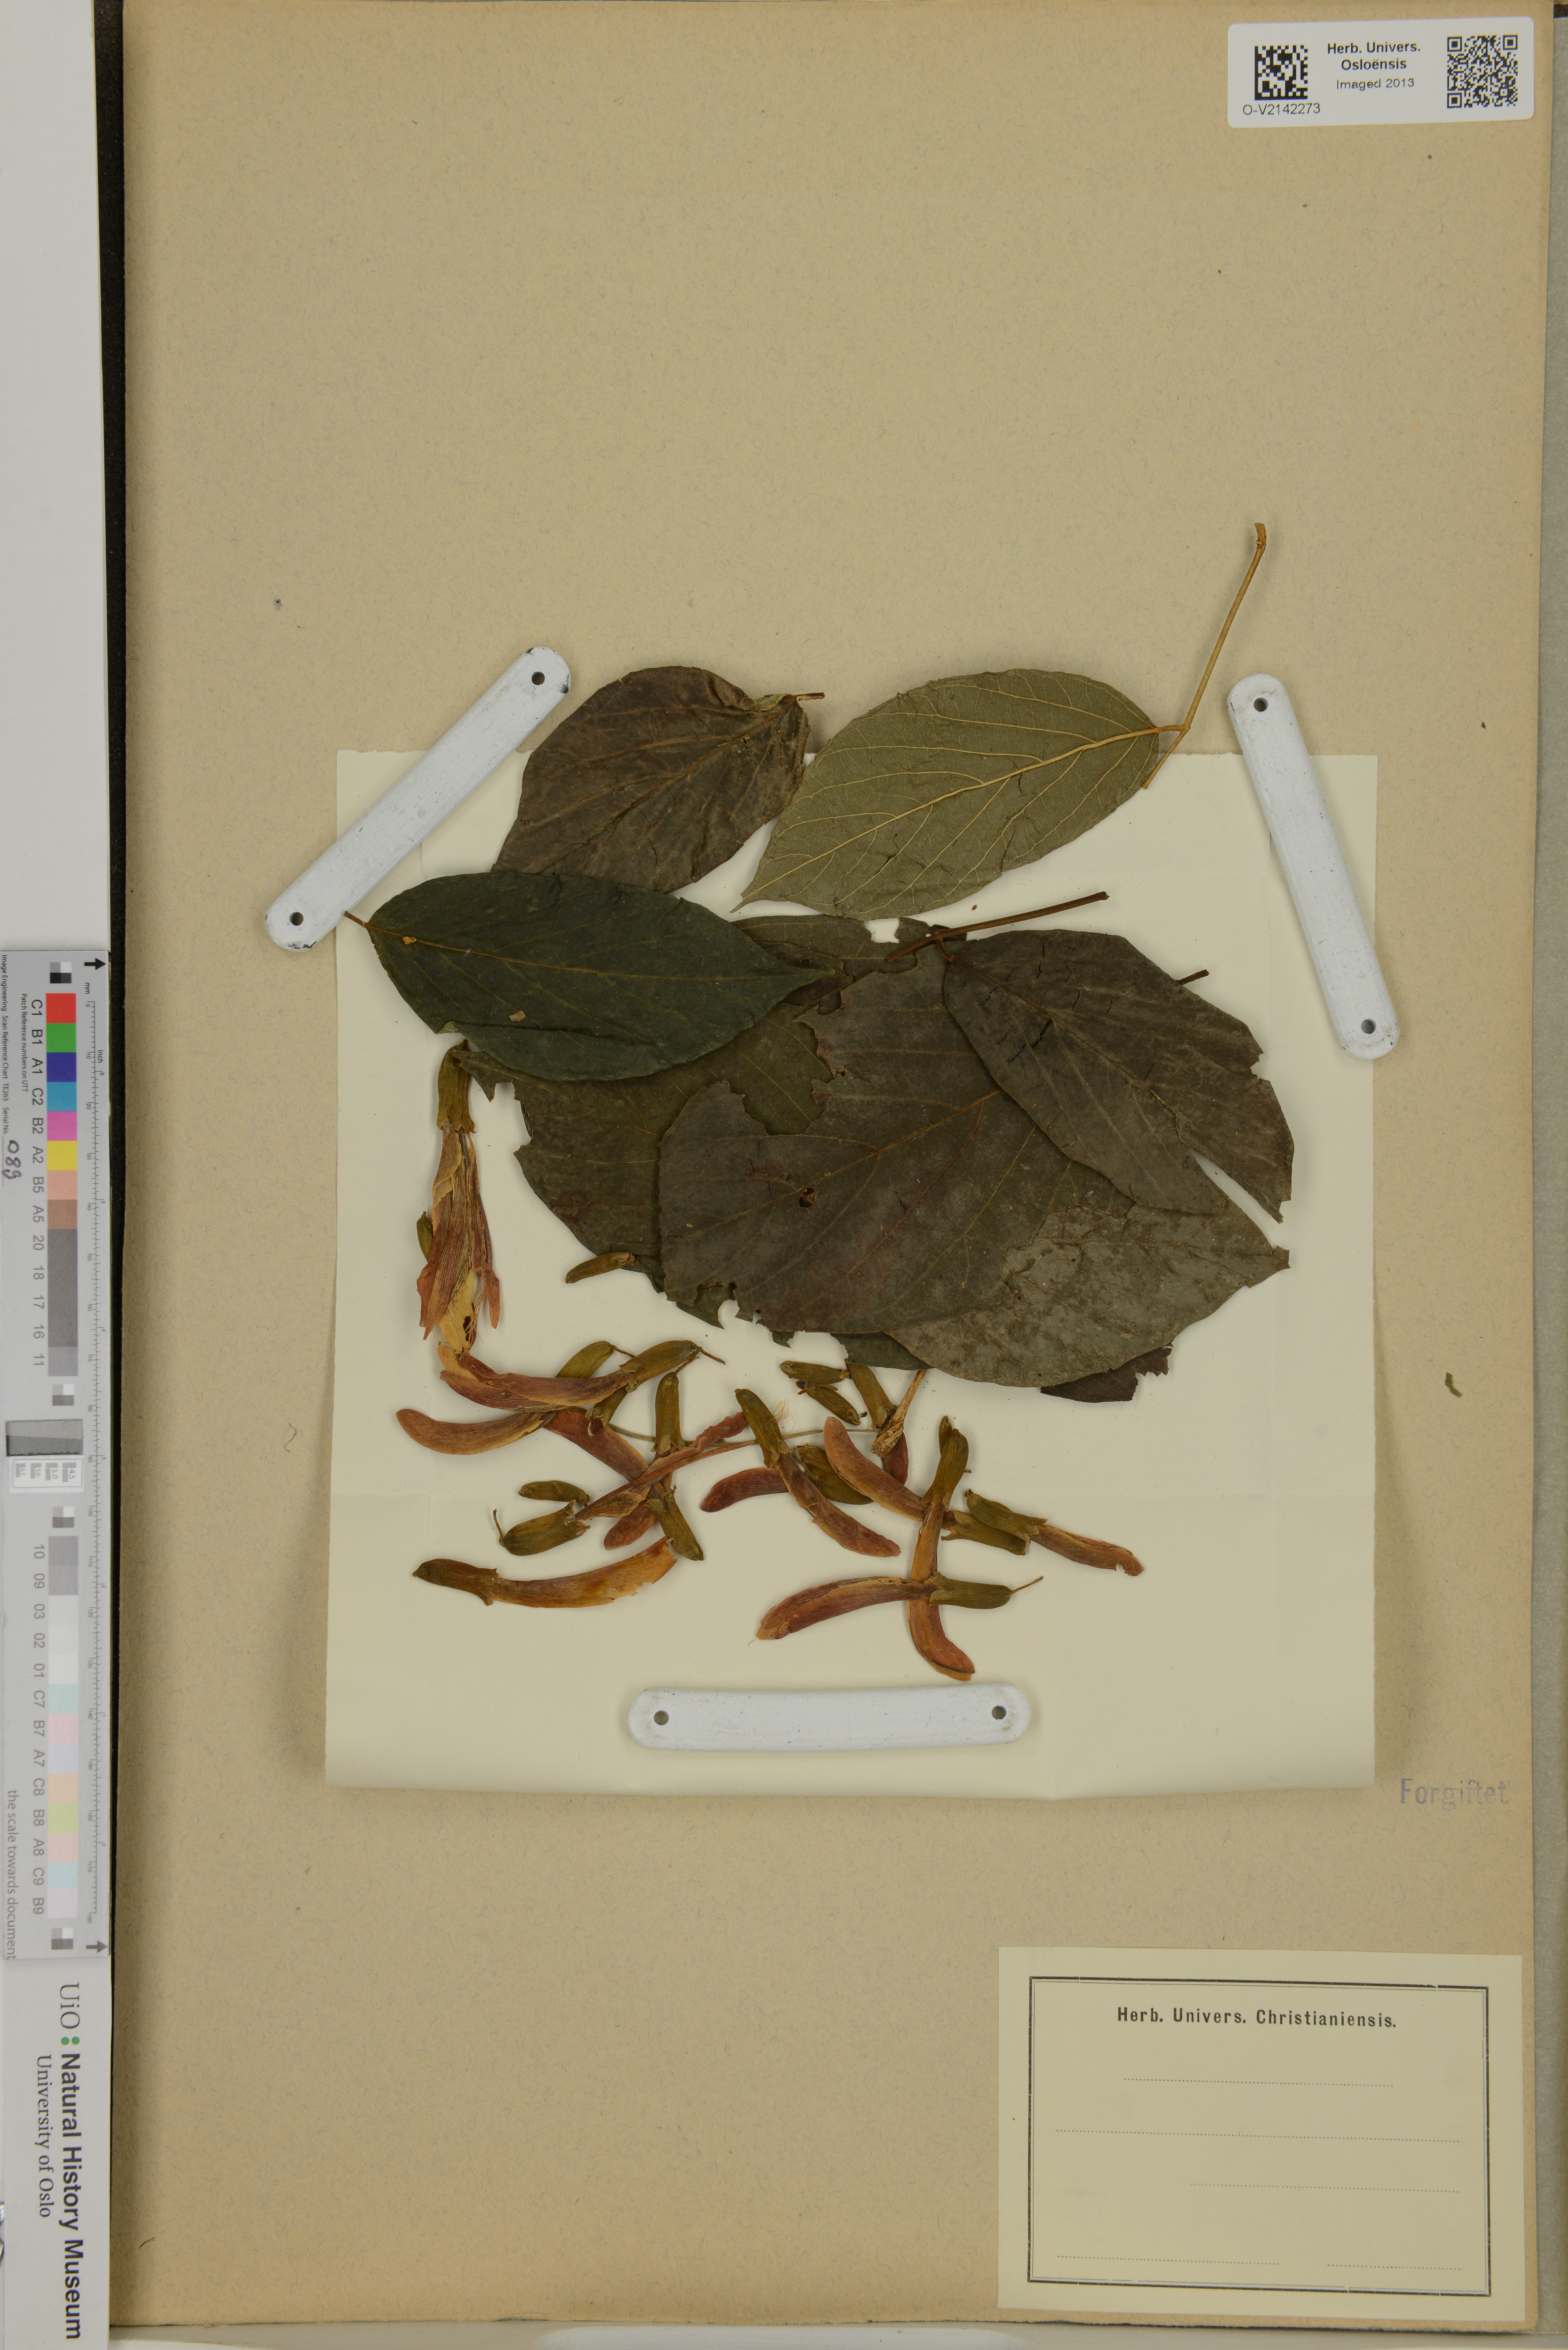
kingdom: Plantae
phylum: Tracheophyta
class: Magnoliopsida
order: Fabales
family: Fabaceae
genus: Camptosema
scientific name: Camptosema spectabile
